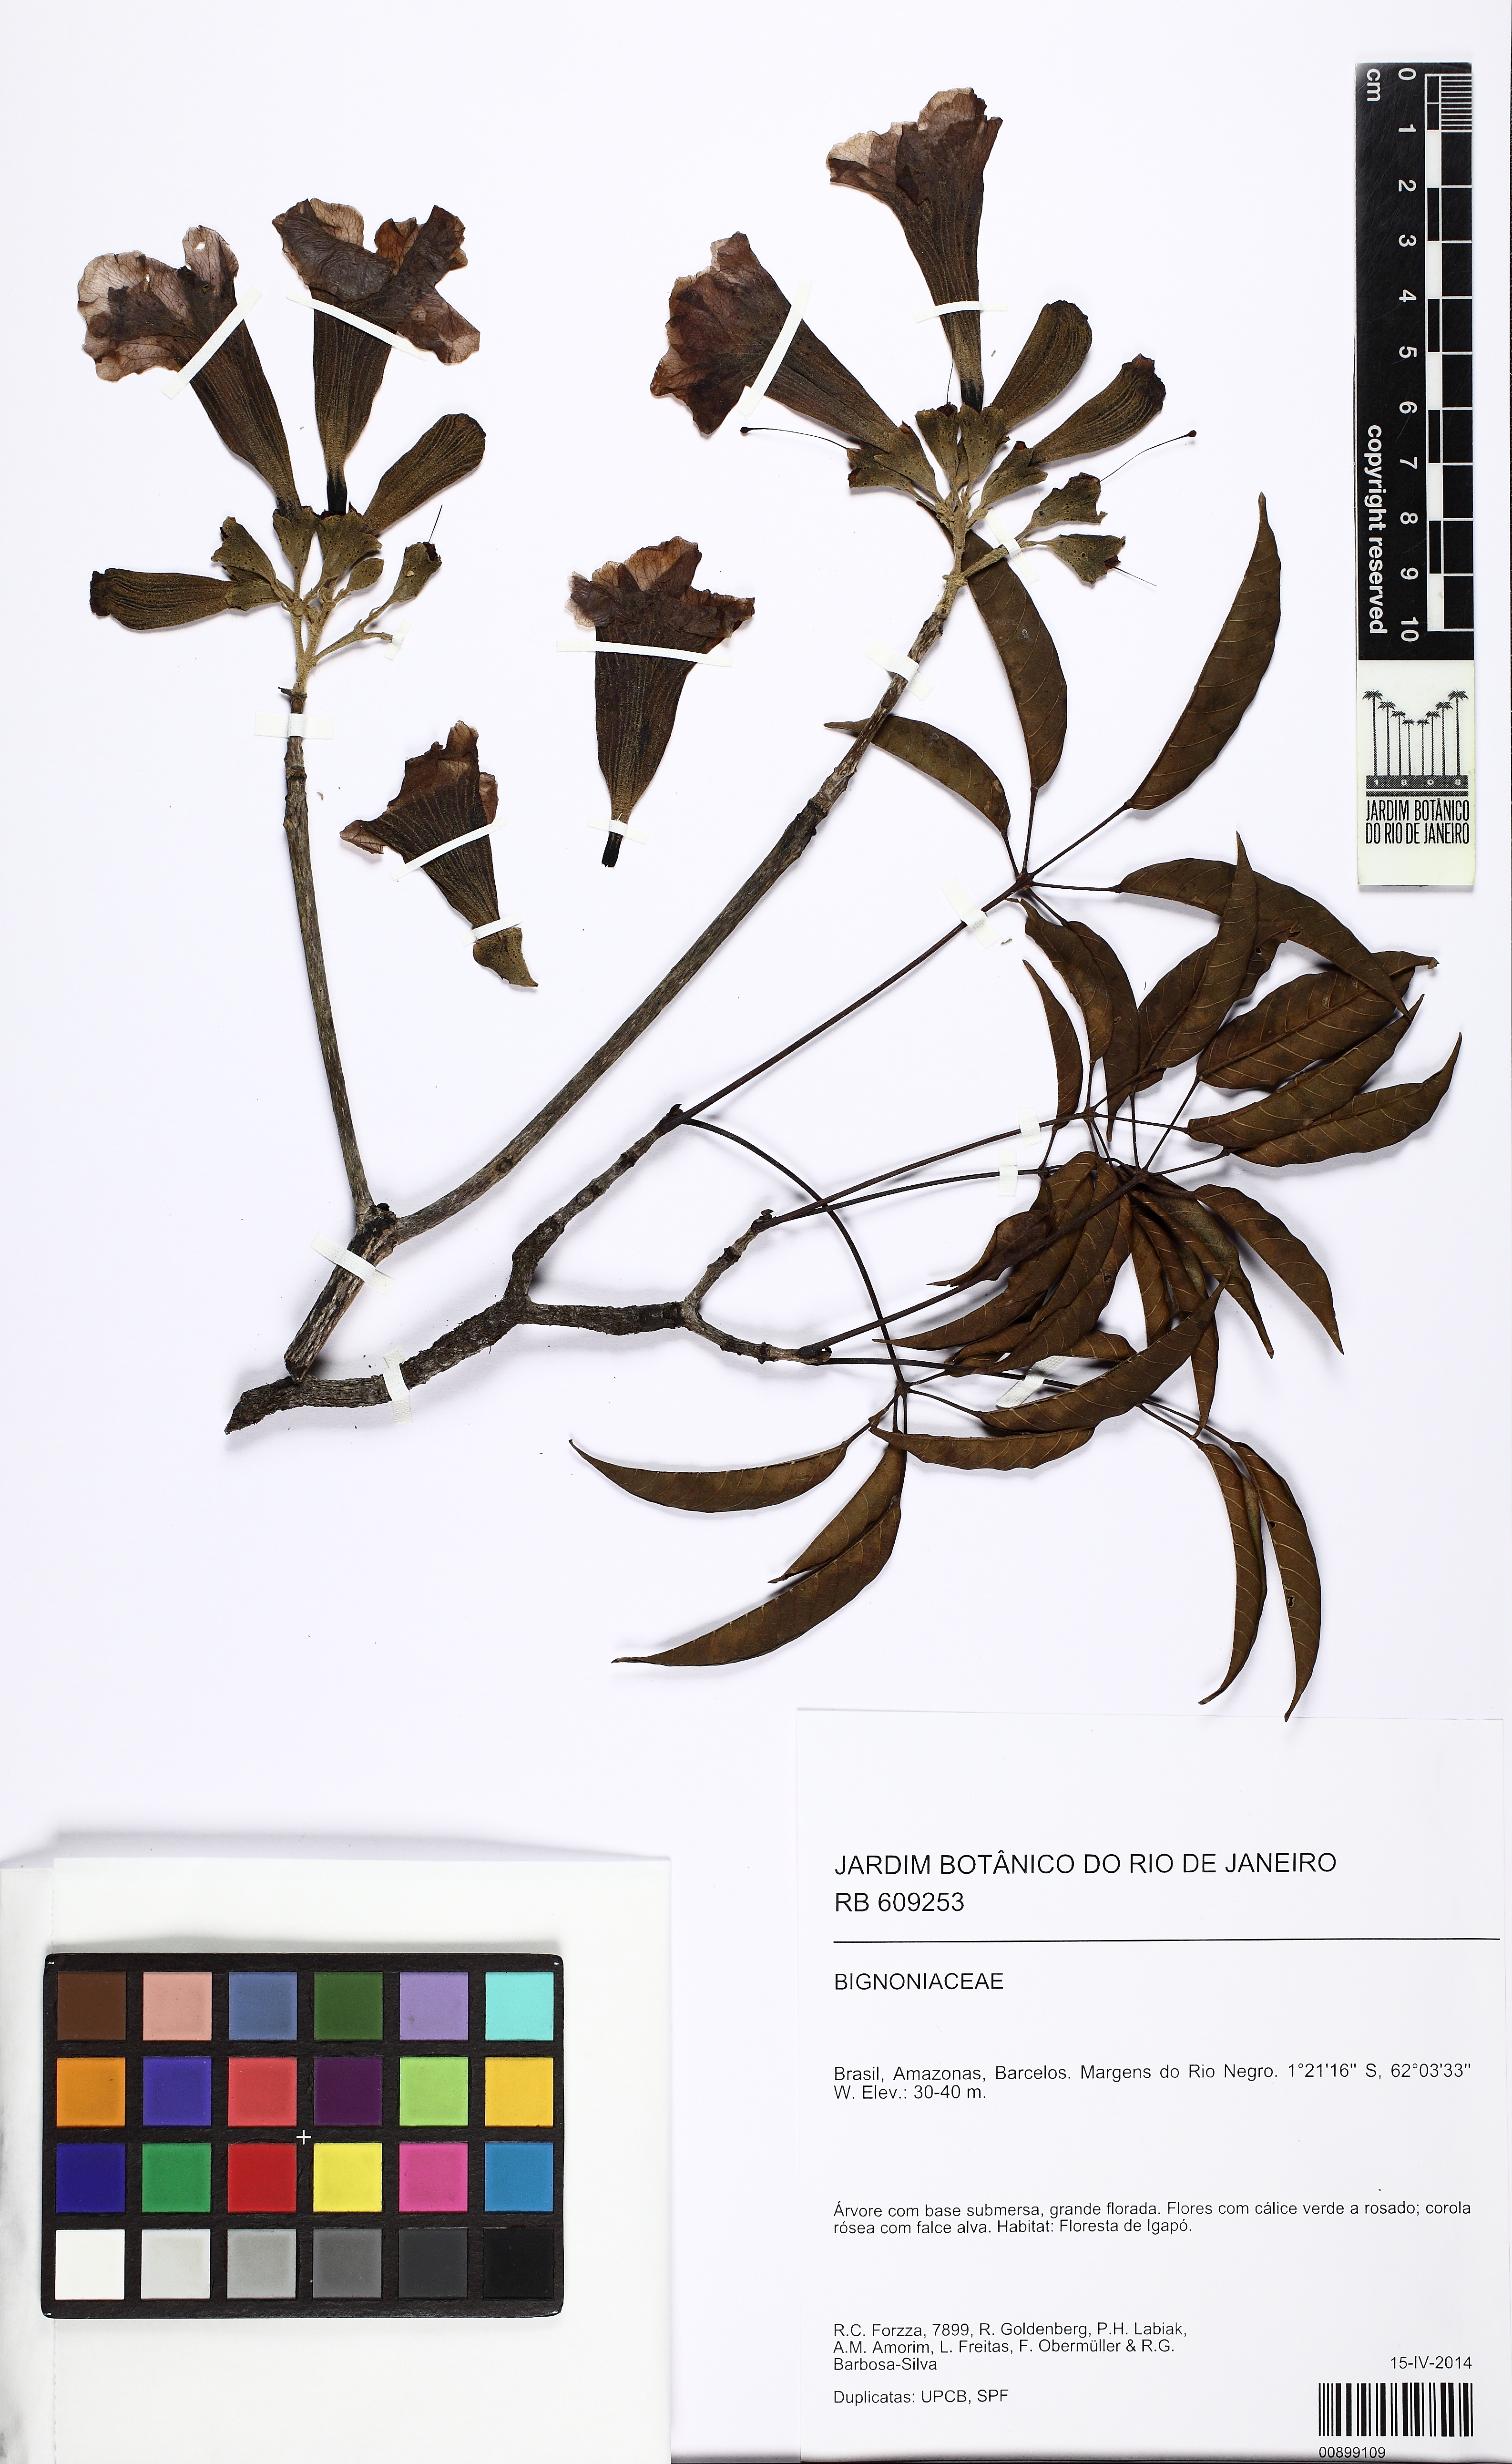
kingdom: Plantae
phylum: Tracheophyta
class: Magnoliopsida
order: Lamiales
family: Bignoniaceae
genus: Handroanthus
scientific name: Handroanthus
